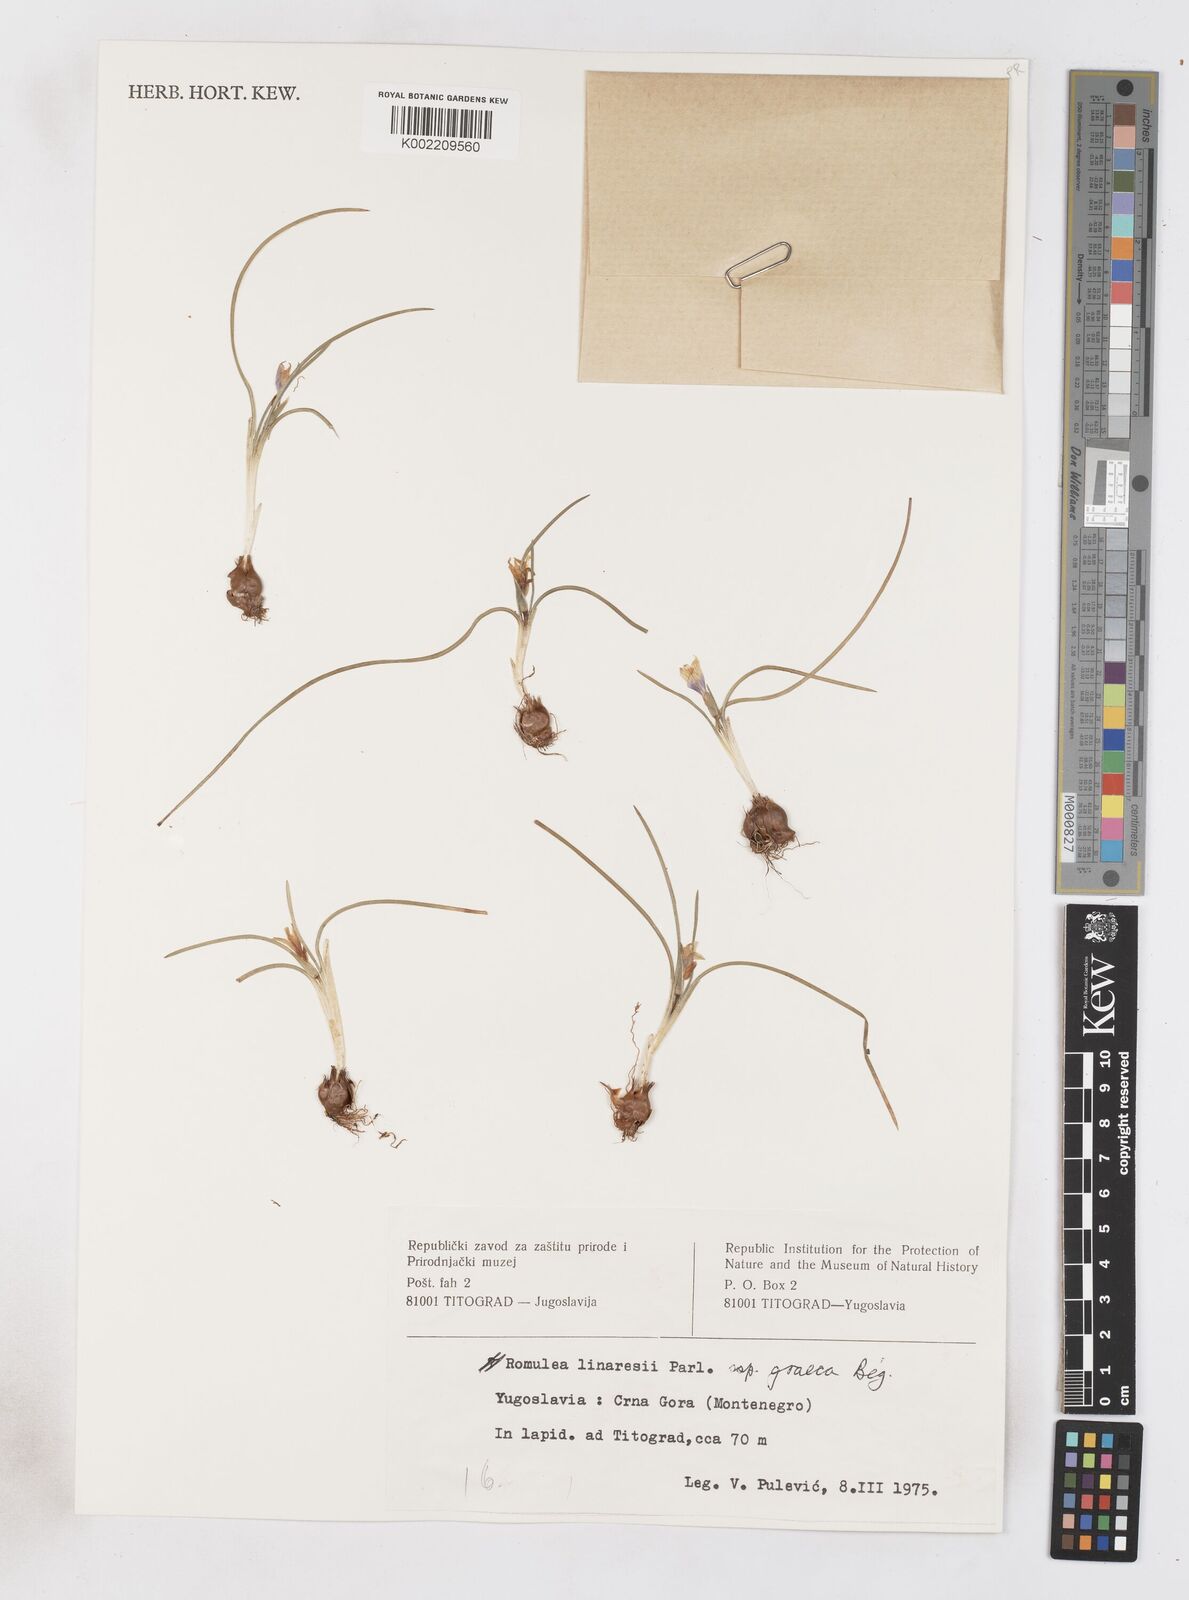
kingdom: Plantae
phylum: Tracheophyta
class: Liliopsida
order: Asparagales
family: Iridaceae
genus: Romulea
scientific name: Romulea linaresii
